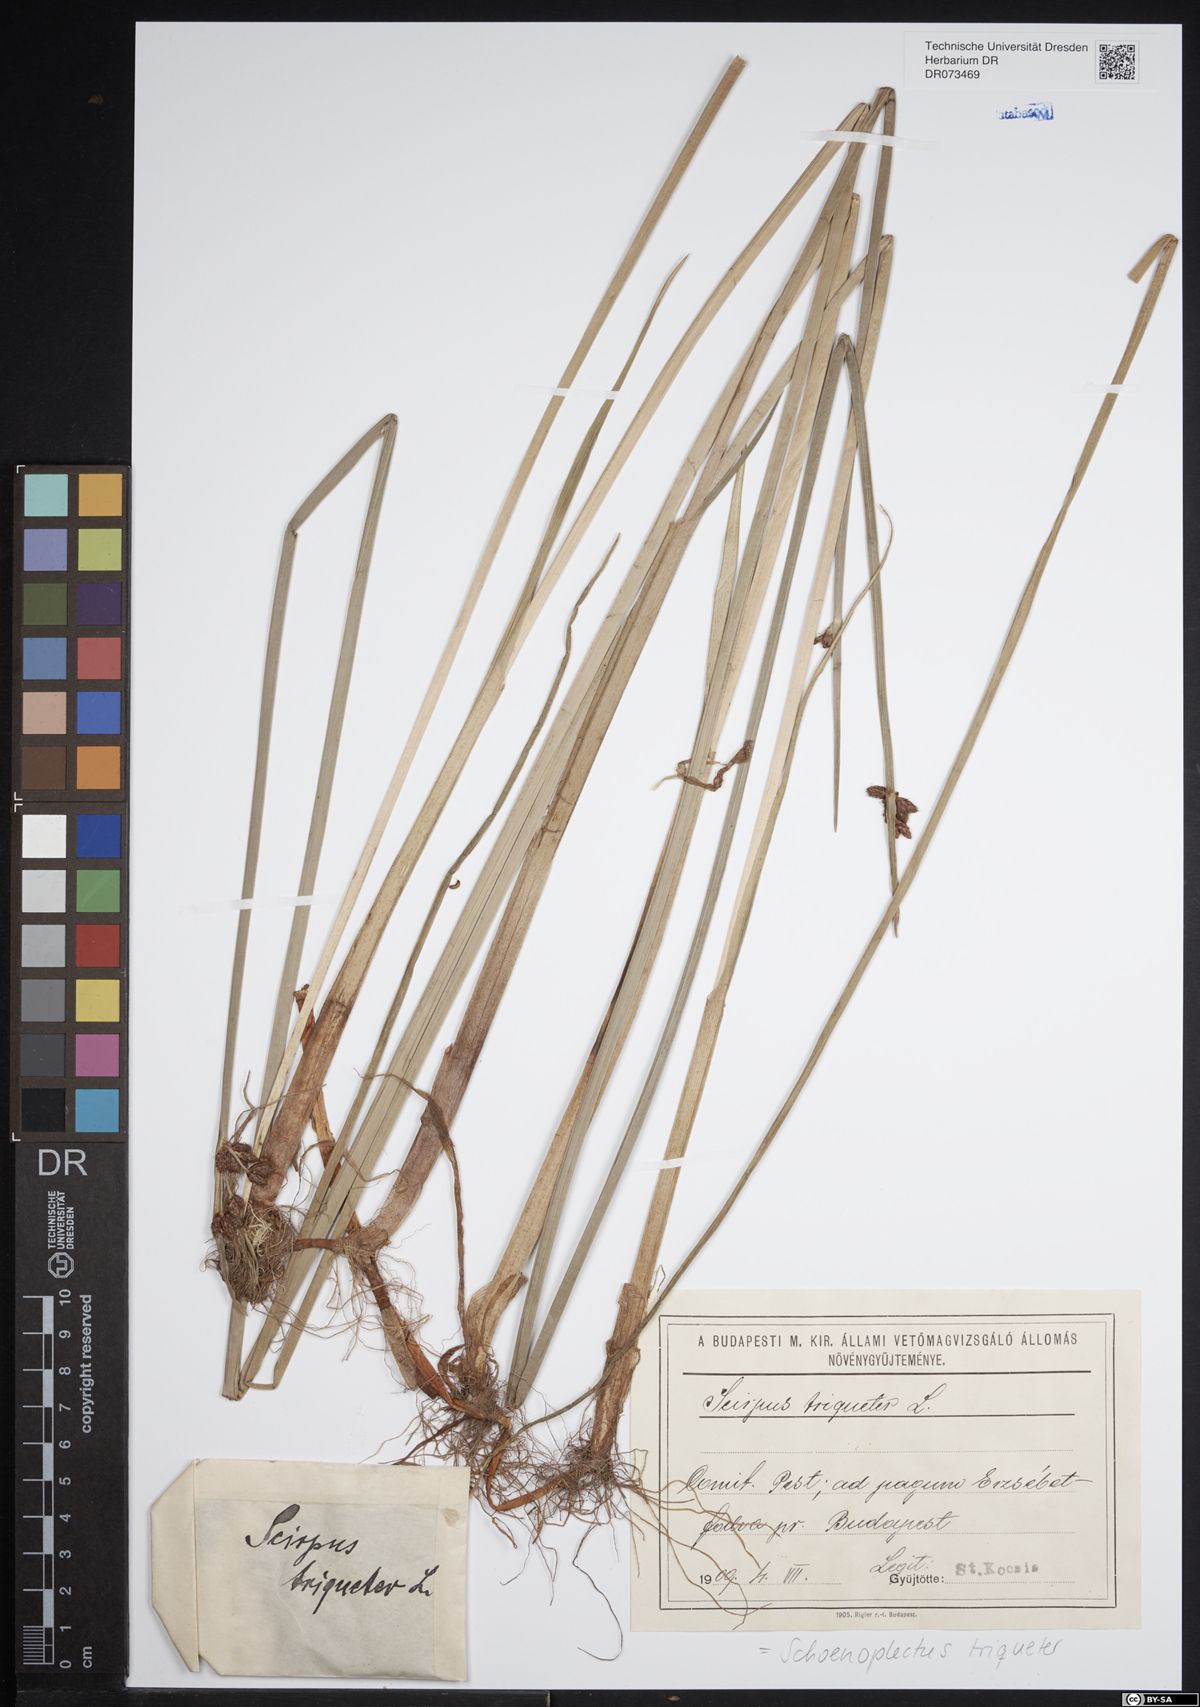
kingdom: Plantae
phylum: Tracheophyta
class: Liliopsida
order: Poales
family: Cyperaceae
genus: Schoenoplectus
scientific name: Schoenoplectus triqueter
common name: Triangular club-rush
